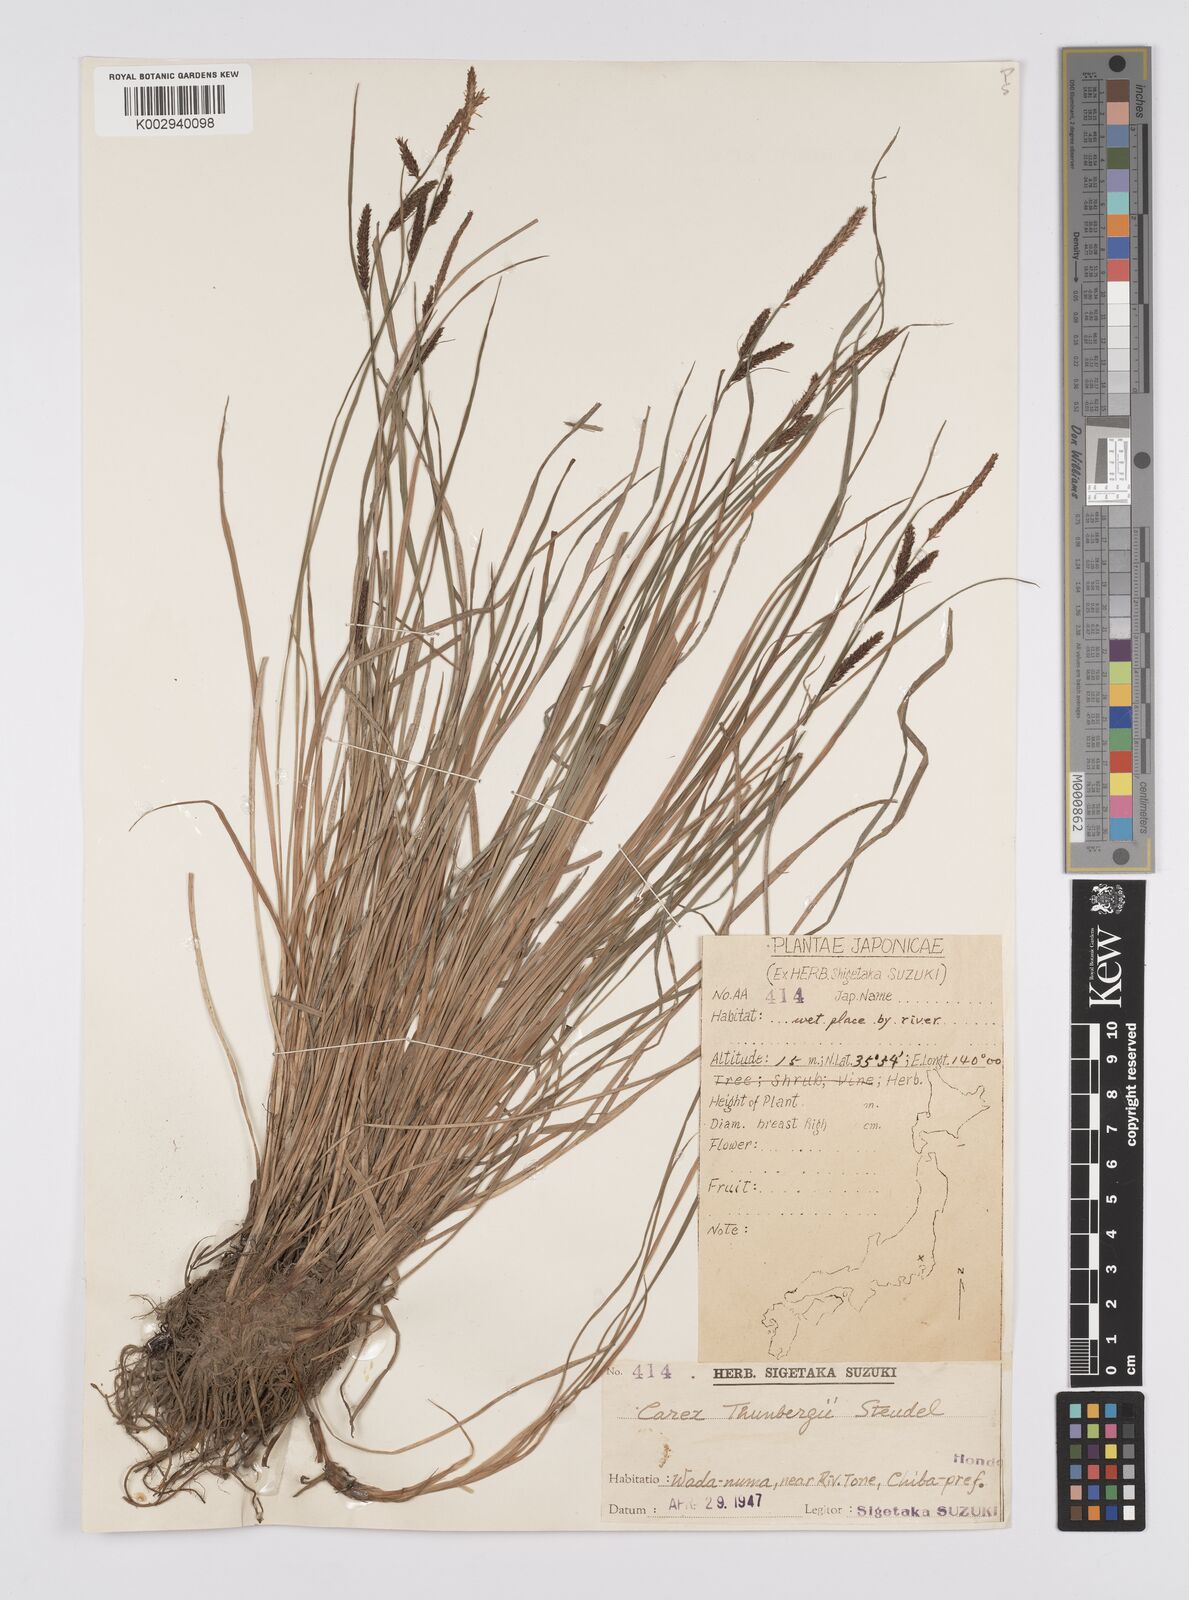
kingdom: Plantae
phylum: Tracheophyta
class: Liliopsida
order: Poales
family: Cyperaceae
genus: Carex
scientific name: Carex thunbergii
